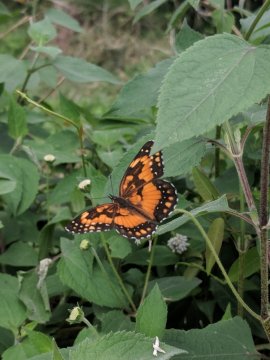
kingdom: Animalia
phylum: Arthropoda
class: Insecta
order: Lepidoptera
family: Nymphalidae
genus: Chlosyne
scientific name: Chlosyne lacinia
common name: Bordered Patch
